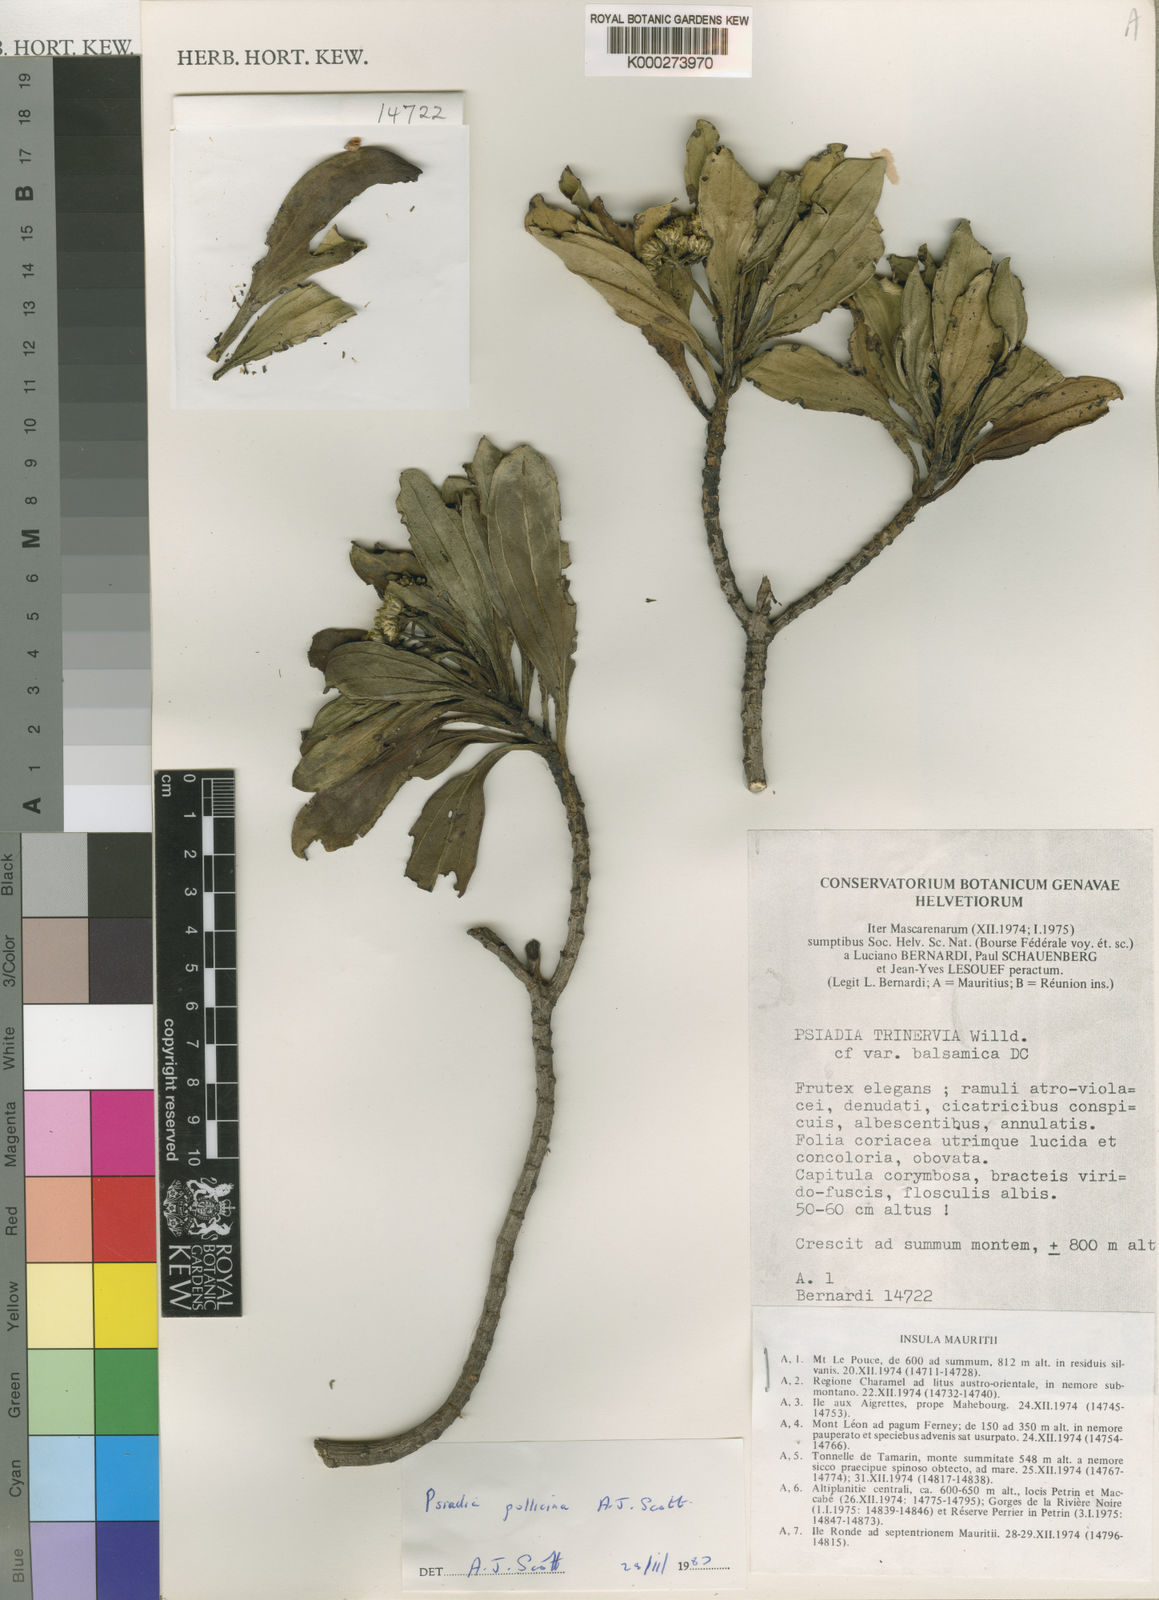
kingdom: Plantae
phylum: Tracheophyta
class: Magnoliopsida
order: Asterales
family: Asteraceae
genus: Psiadia
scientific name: Psiadia pollicina
